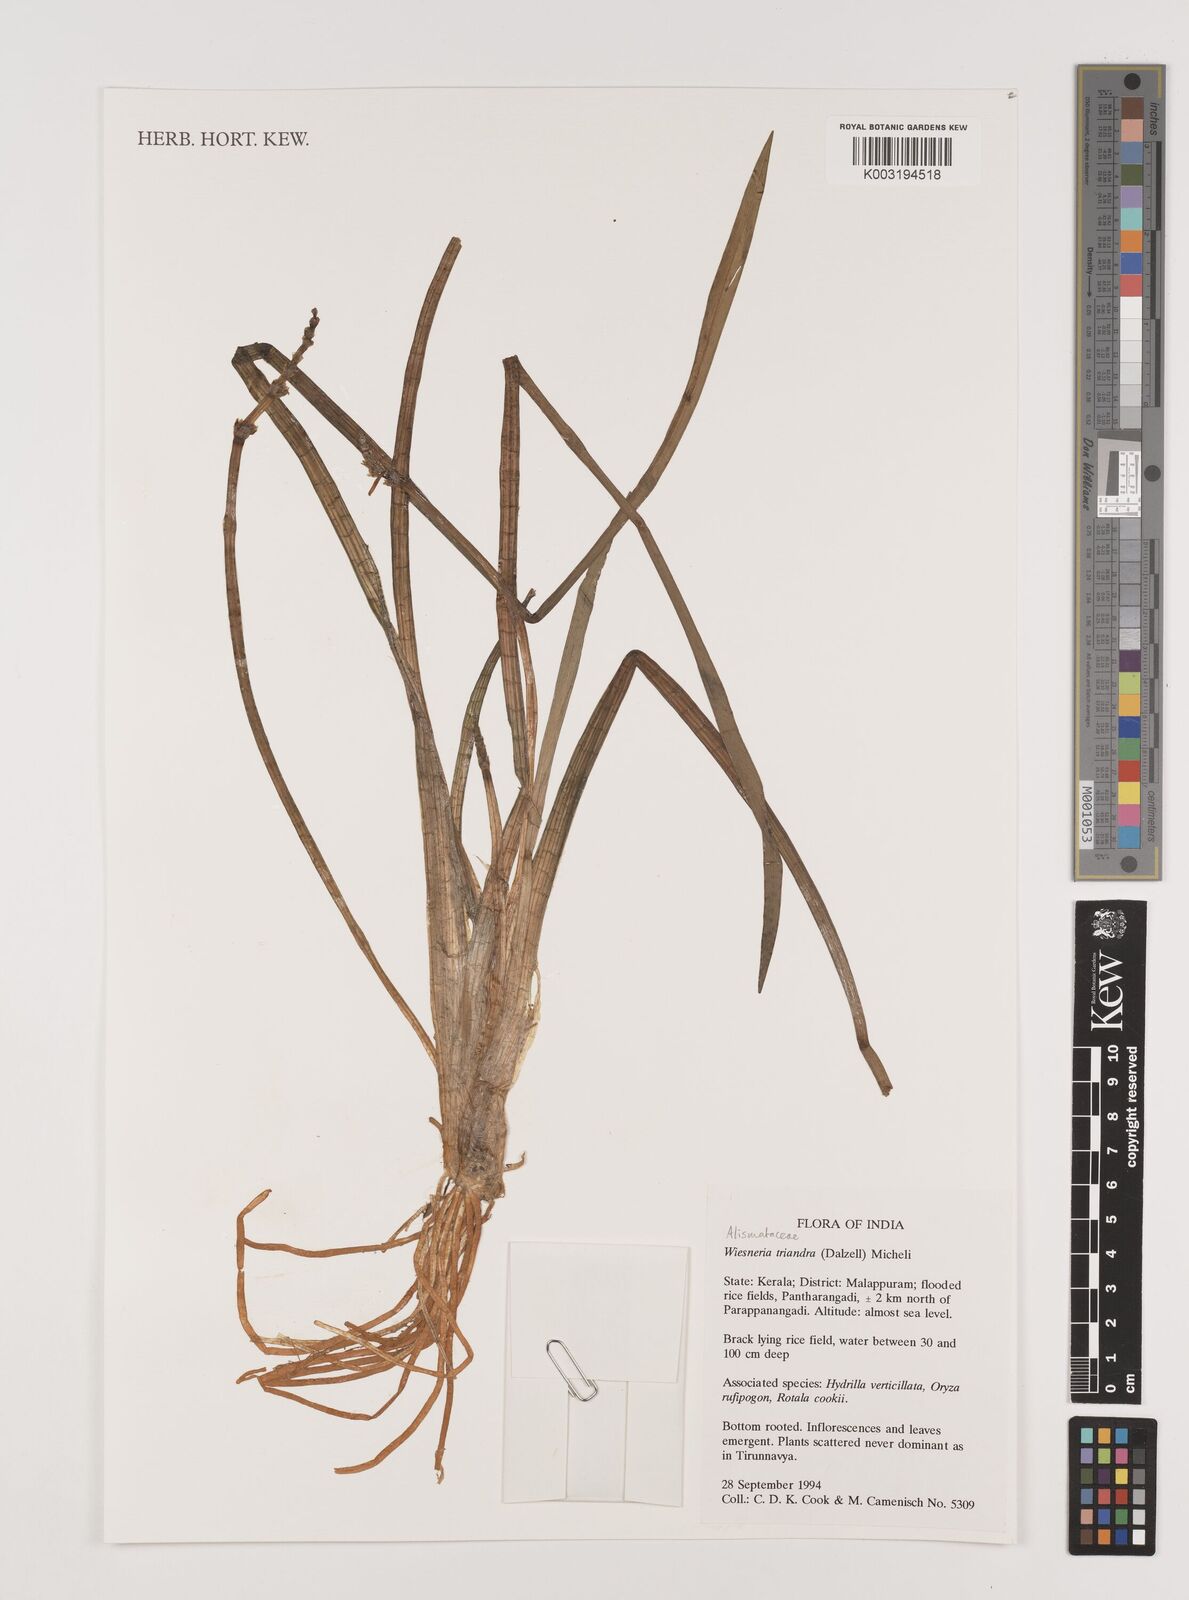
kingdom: Plantae
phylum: Tracheophyta
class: Liliopsida
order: Alismatales
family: Alismataceae
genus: Wiesneria
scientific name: Wiesneria triandra
